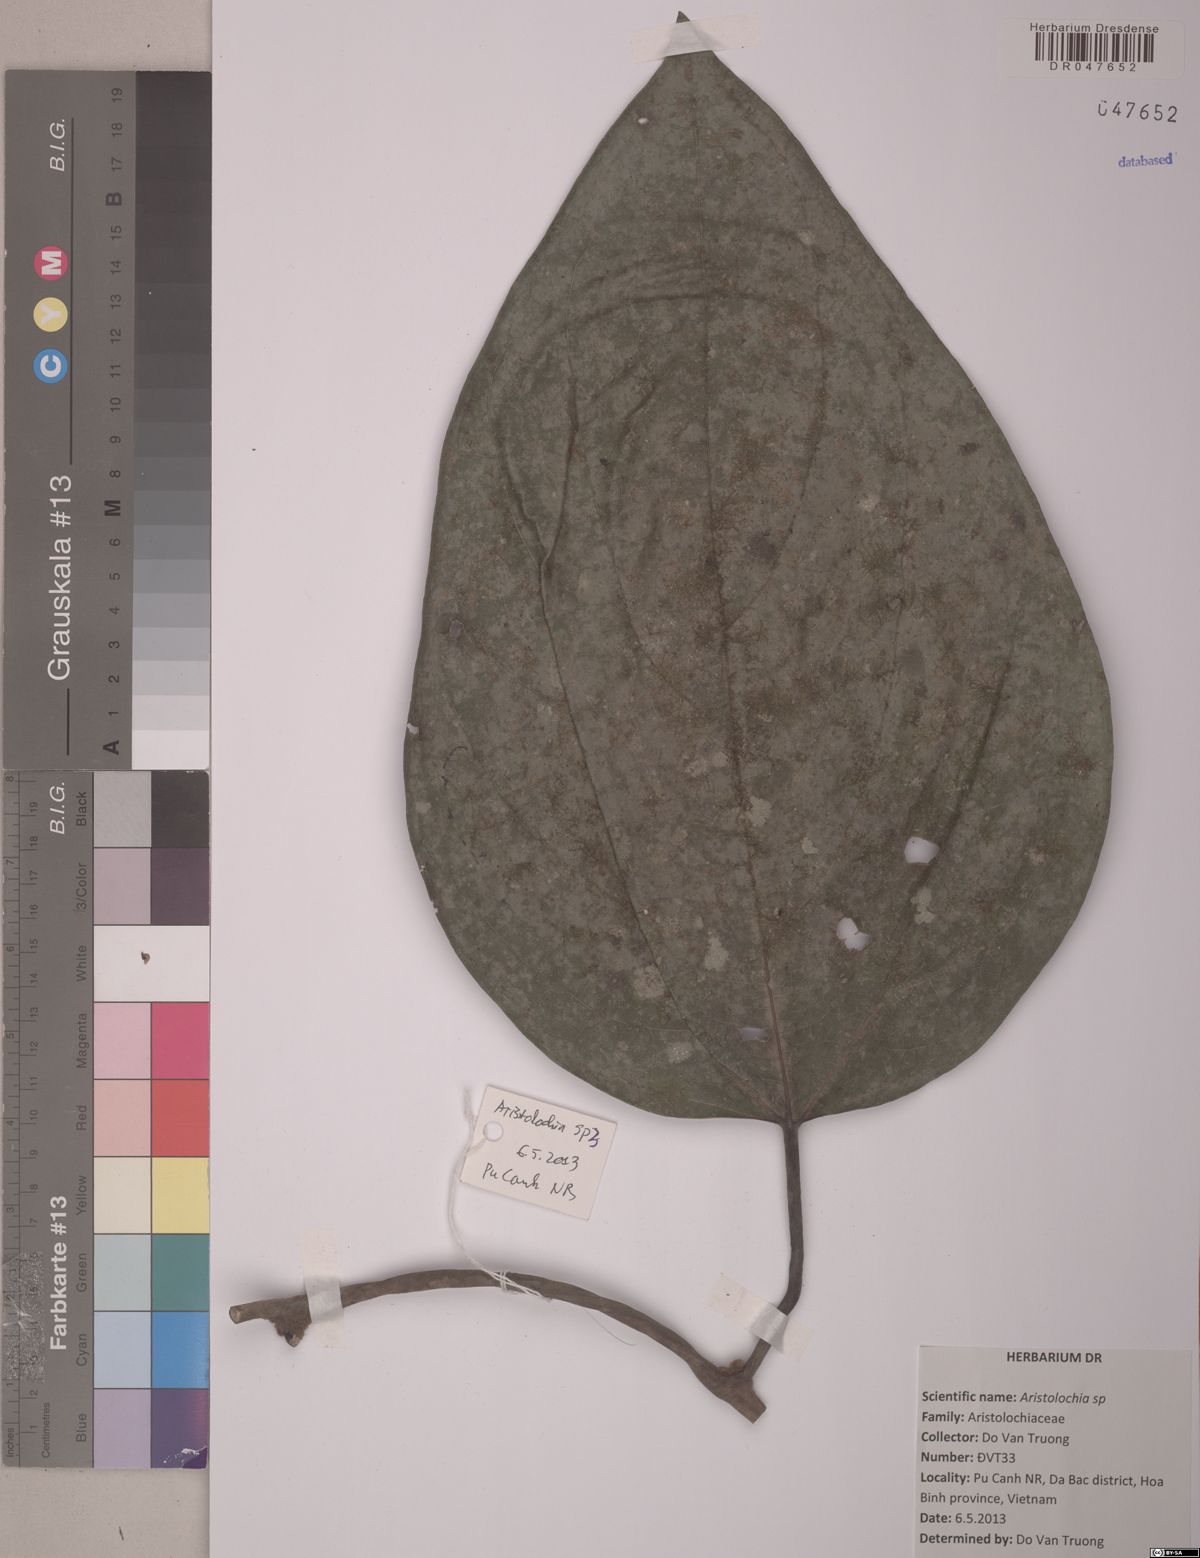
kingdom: Plantae
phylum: Tracheophyta
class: Magnoliopsida
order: Piperales
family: Aristolochiaceae
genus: Aristolochia
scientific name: Aristolochia
